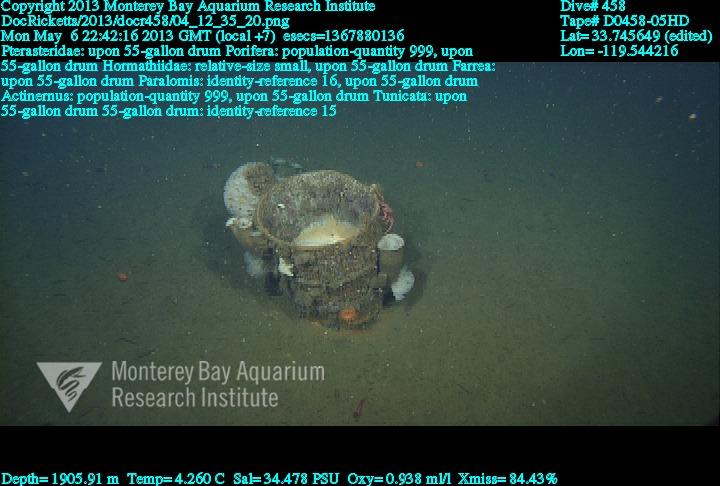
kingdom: Animalia
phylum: Porifera
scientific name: Porifera
